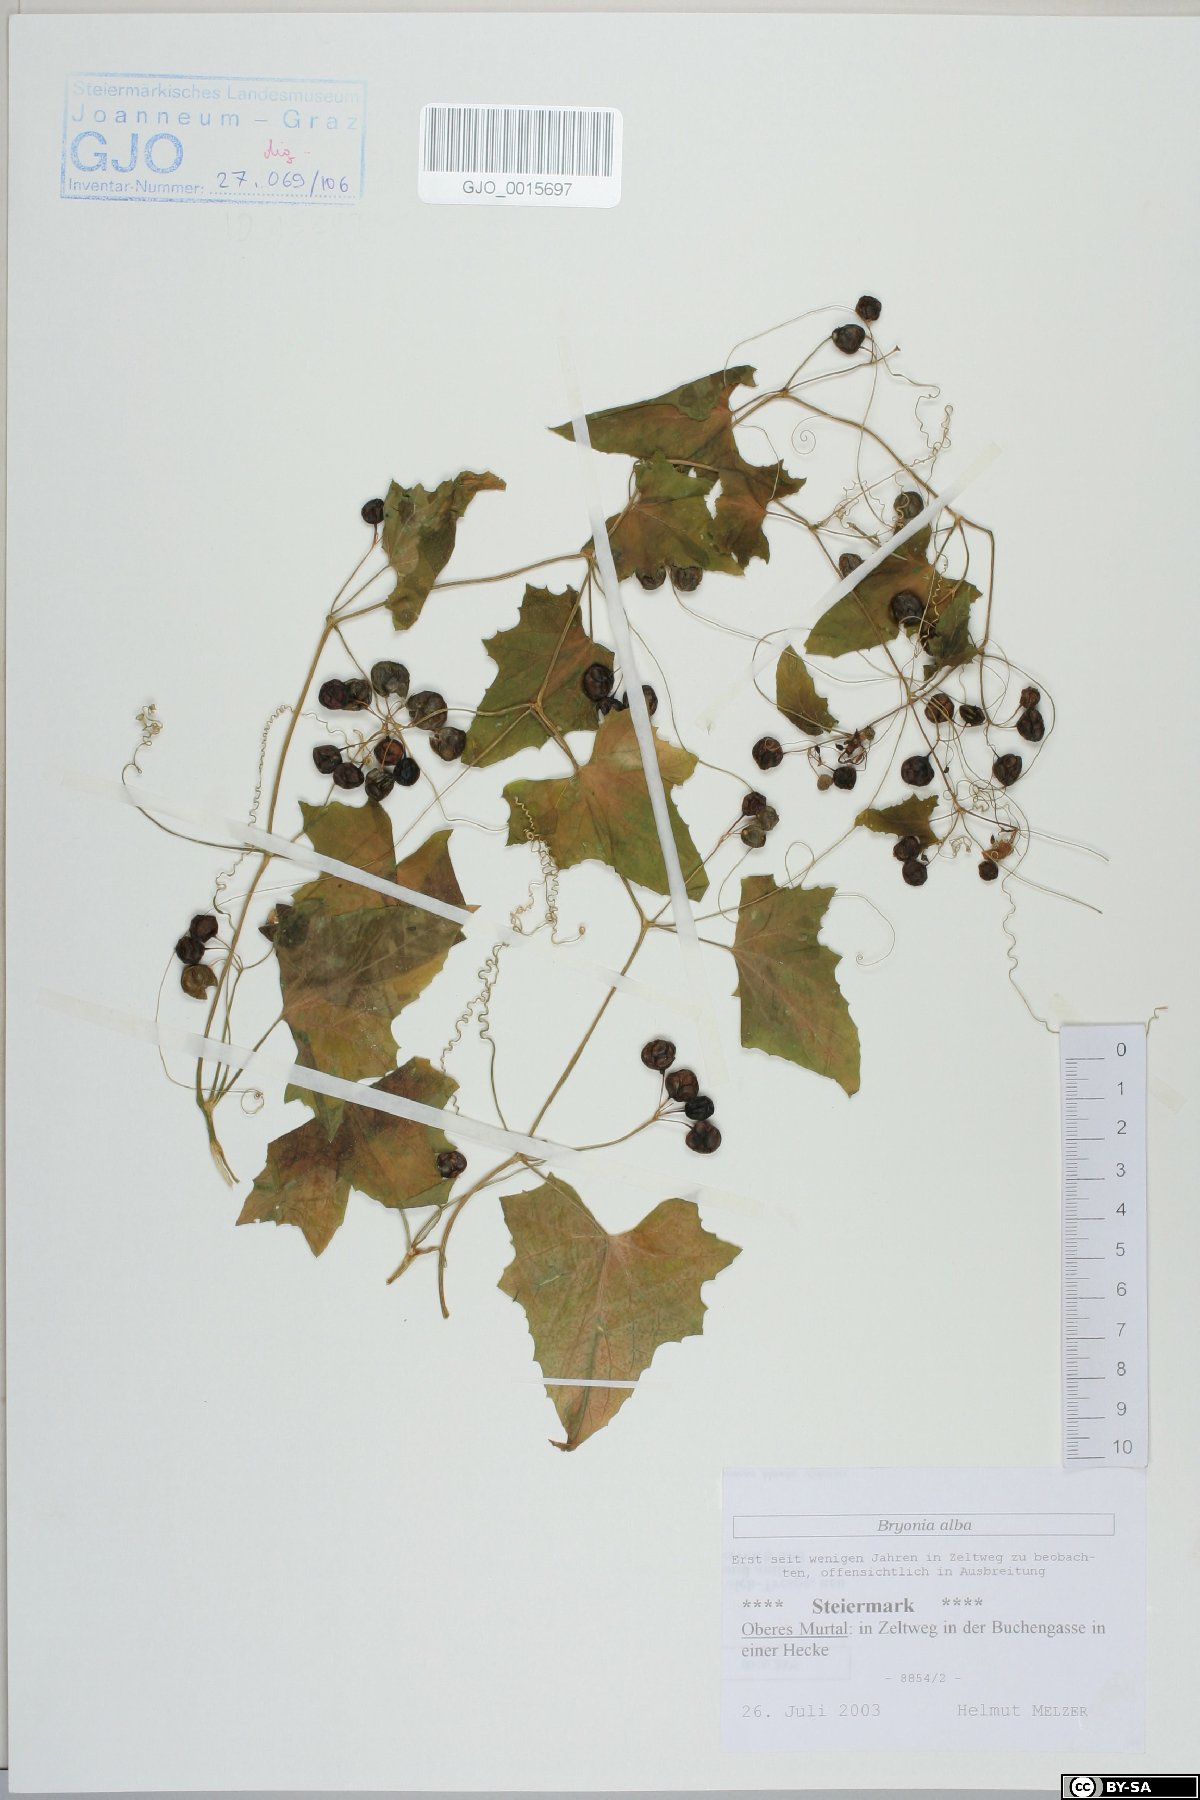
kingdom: Plantae
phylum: Tracheophyta
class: Magnoliopsida
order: Cucurbitales
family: Cucurbitaceae
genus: Bryonia
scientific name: Bryonia alba
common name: White bryony
